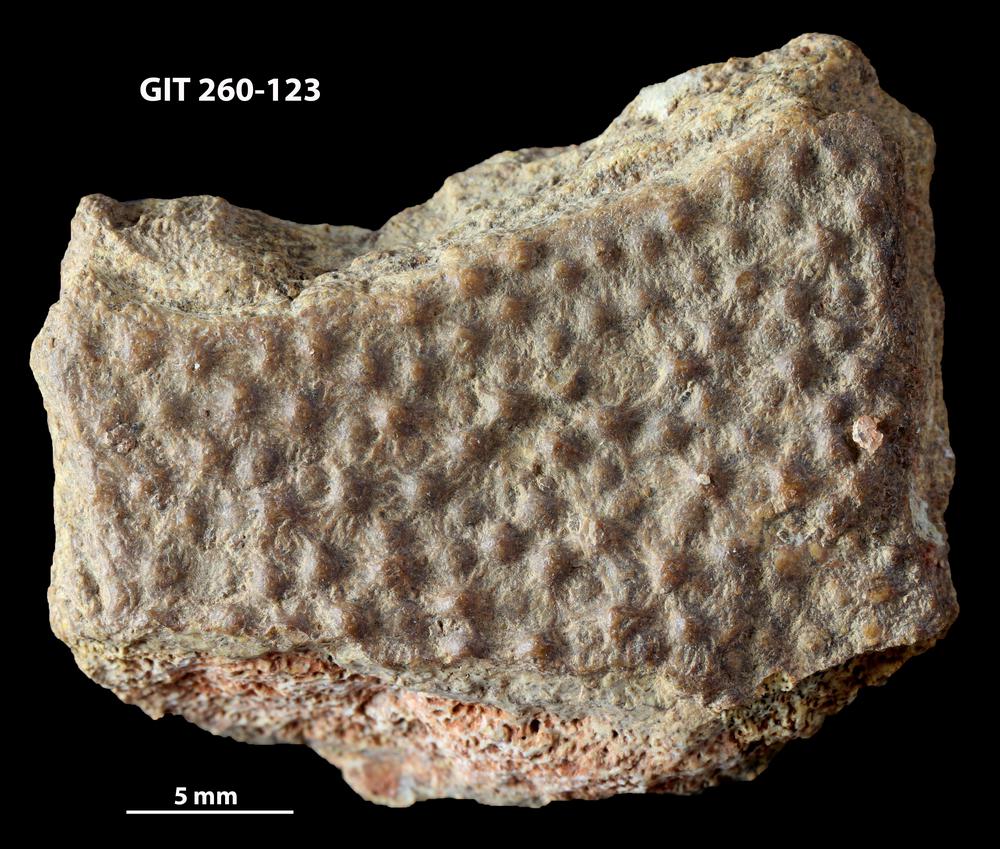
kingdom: Animalia
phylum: Chordata
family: Homostiidae
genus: Homostius
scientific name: Homostius
